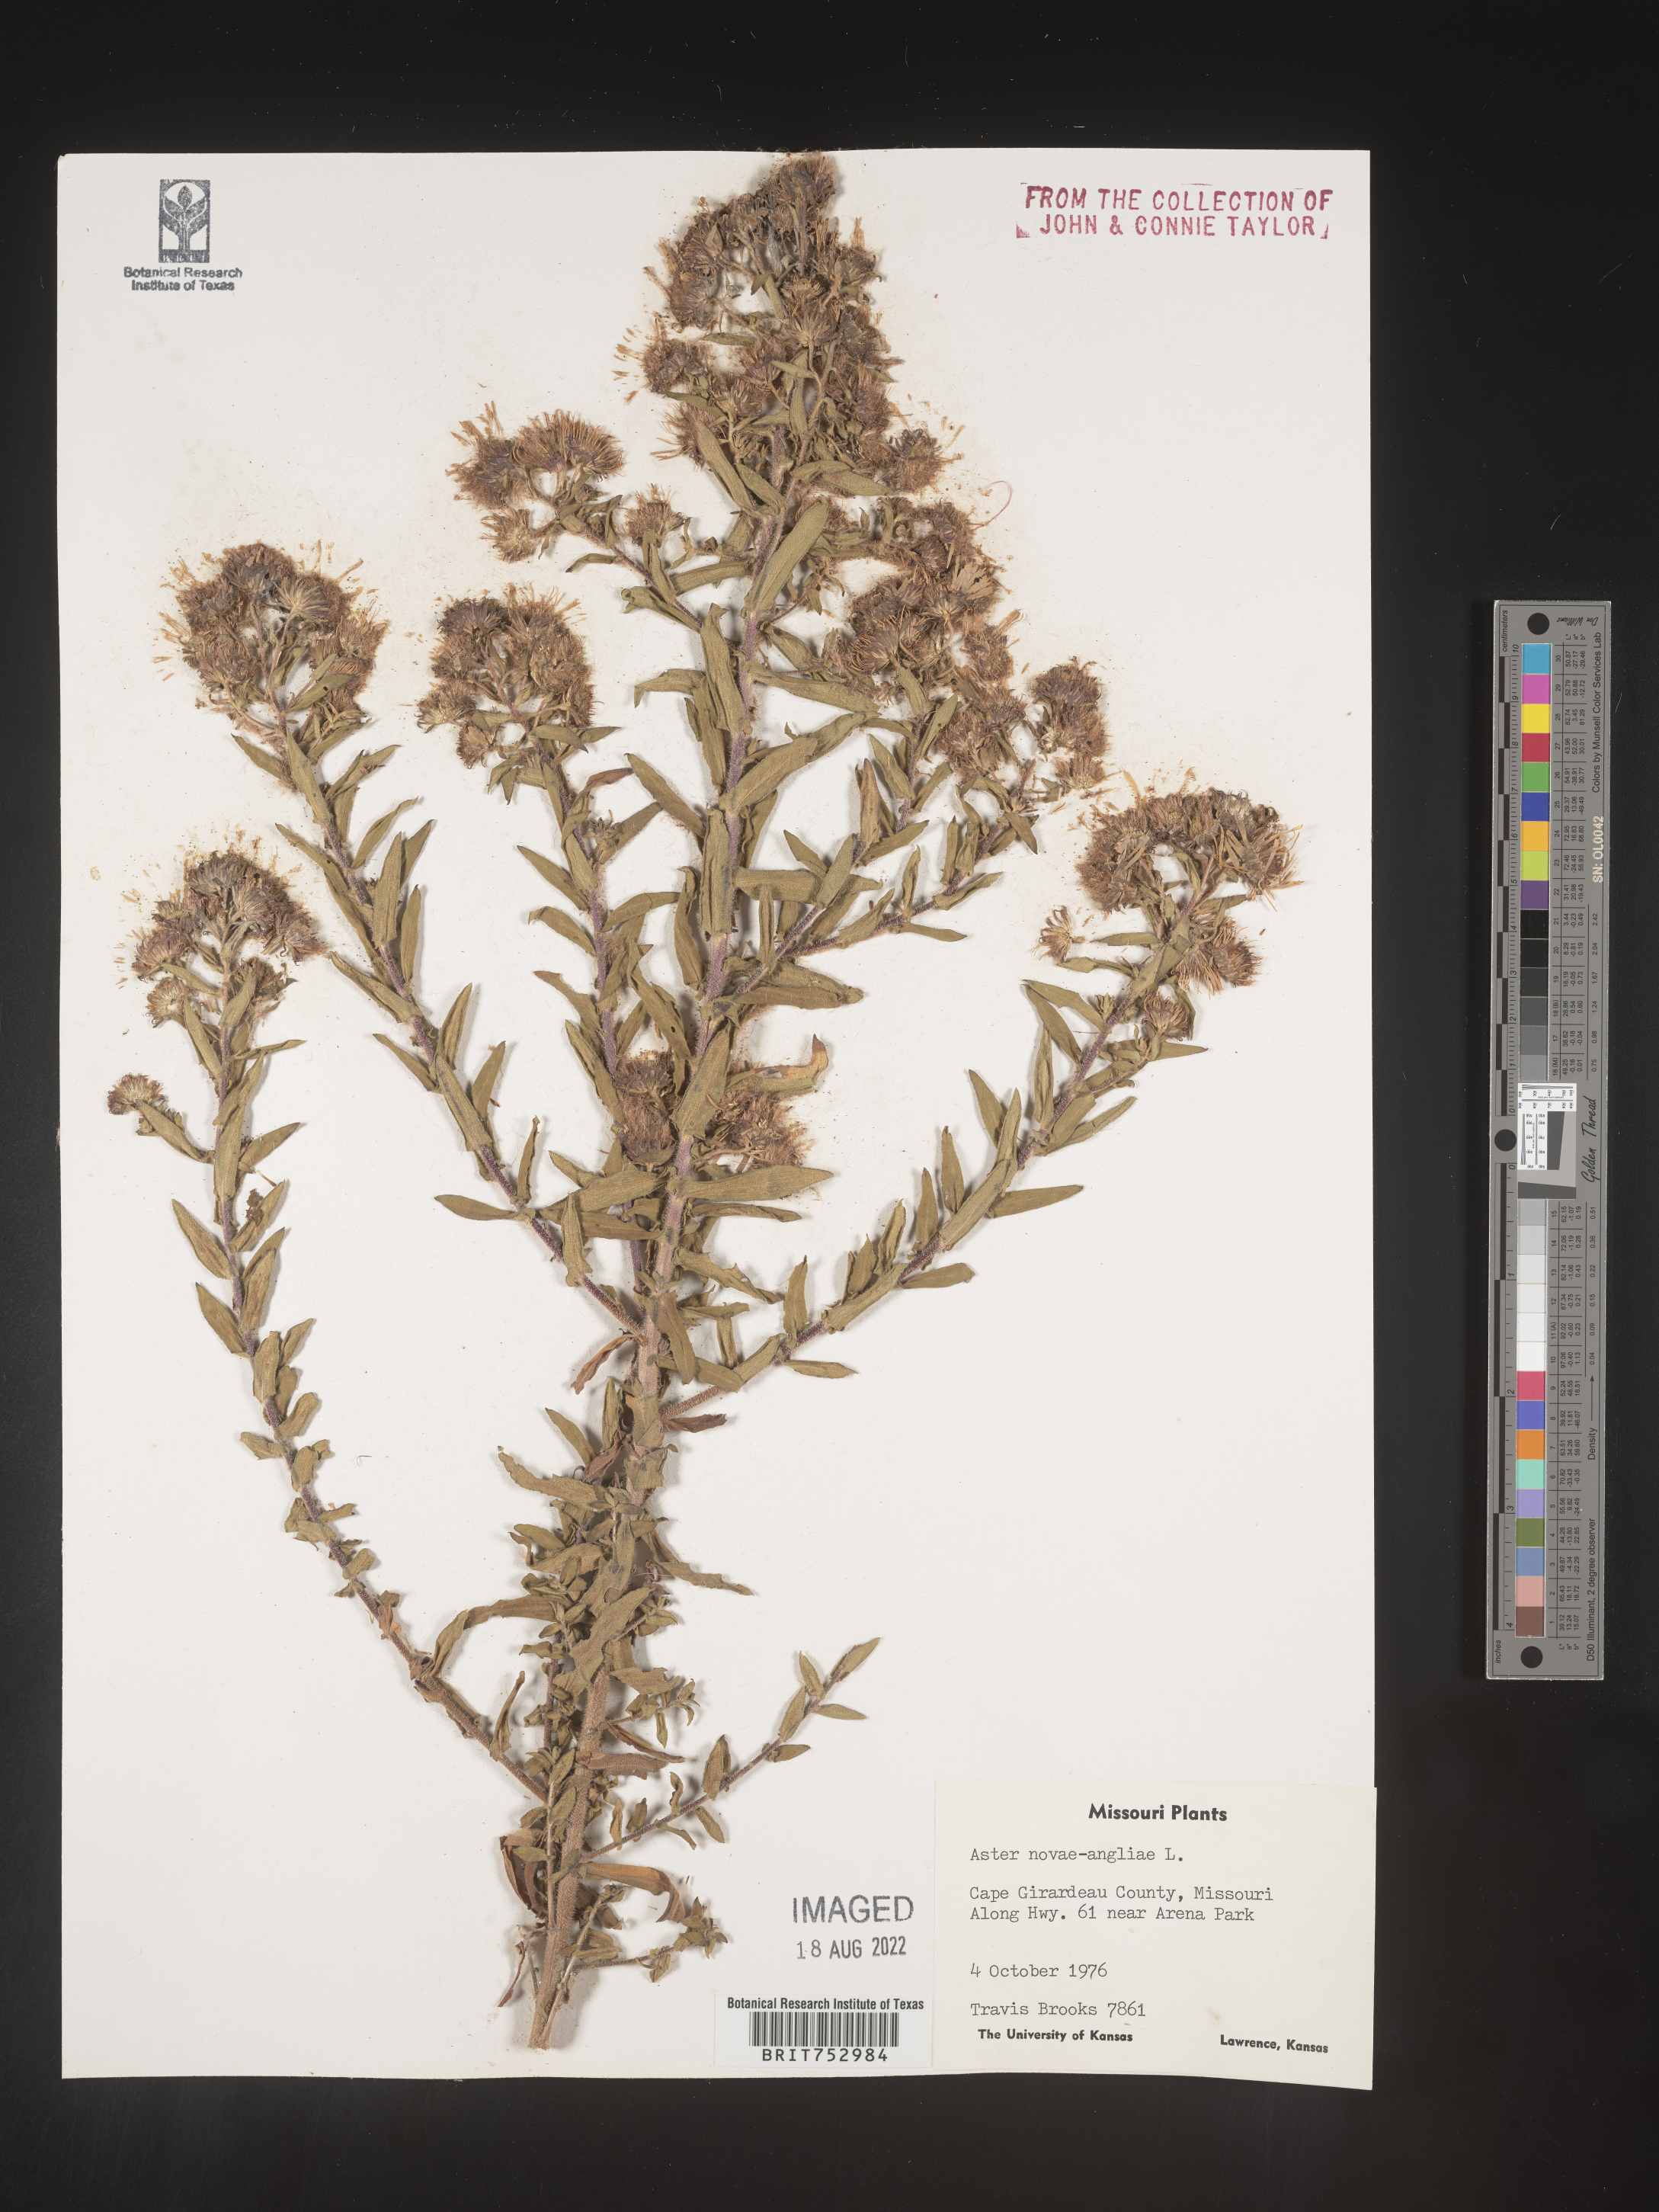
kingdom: Plantae
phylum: Tracheophyta
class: Magnoliopsida
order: Asterales
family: Asteraceae
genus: Symphyotrichum
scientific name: Symphyotrichum novae-angliae
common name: Michaelmas daisy
